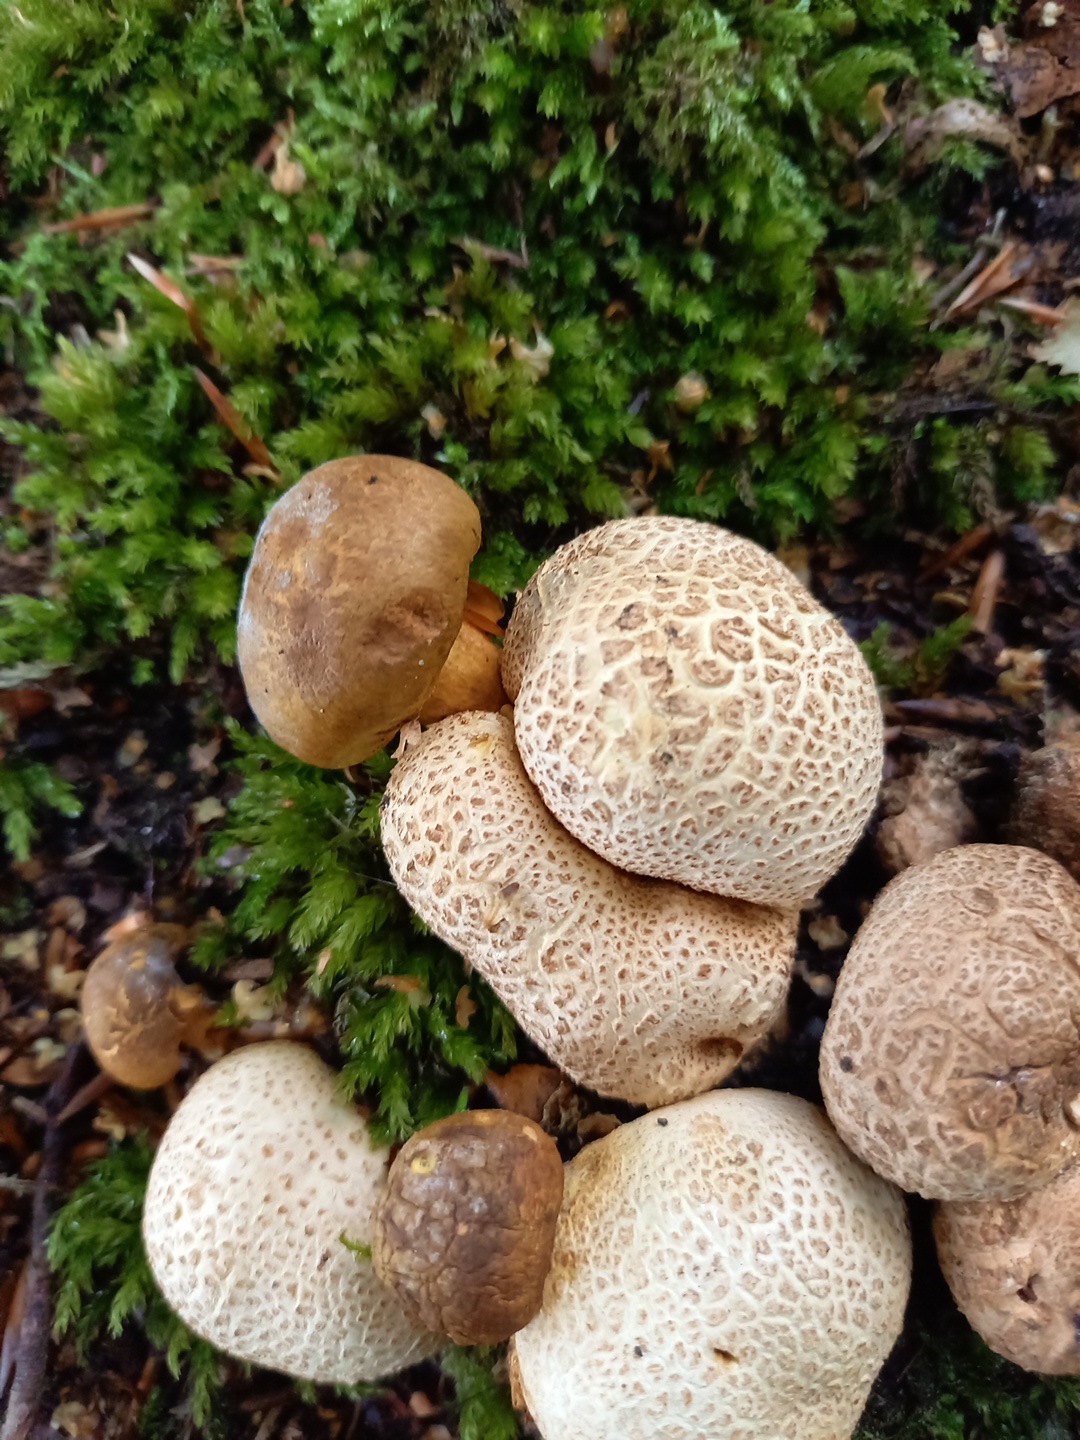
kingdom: Fungi
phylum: Basidiomycota
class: Agaricomycetes
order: Boletales
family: Boletaceae
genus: Pseudoboletus
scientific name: Pseudoboletus parasiticus
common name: snyltende rørhat
